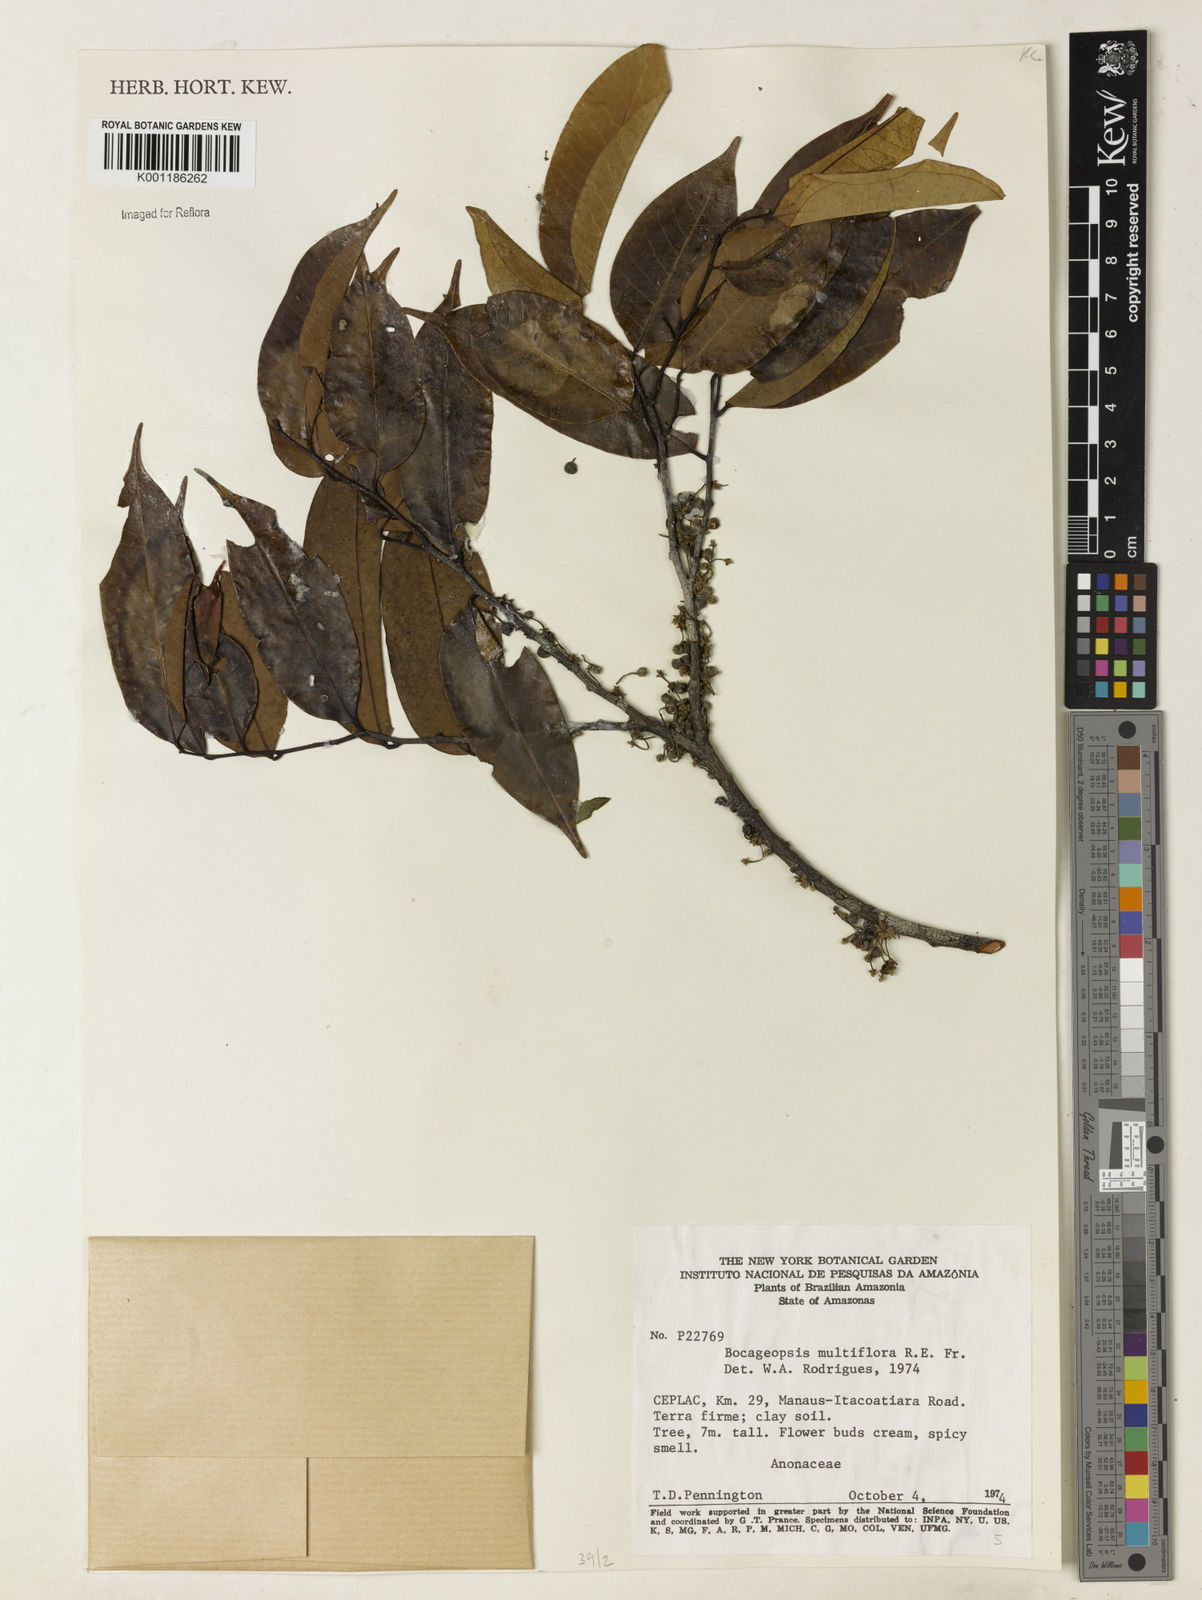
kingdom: Plantae
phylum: Tracheophyta
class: Magnoliopsida
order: Magnoliales
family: Annonaceae
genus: Bocageopsis
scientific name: Bocageopsis multiflora
